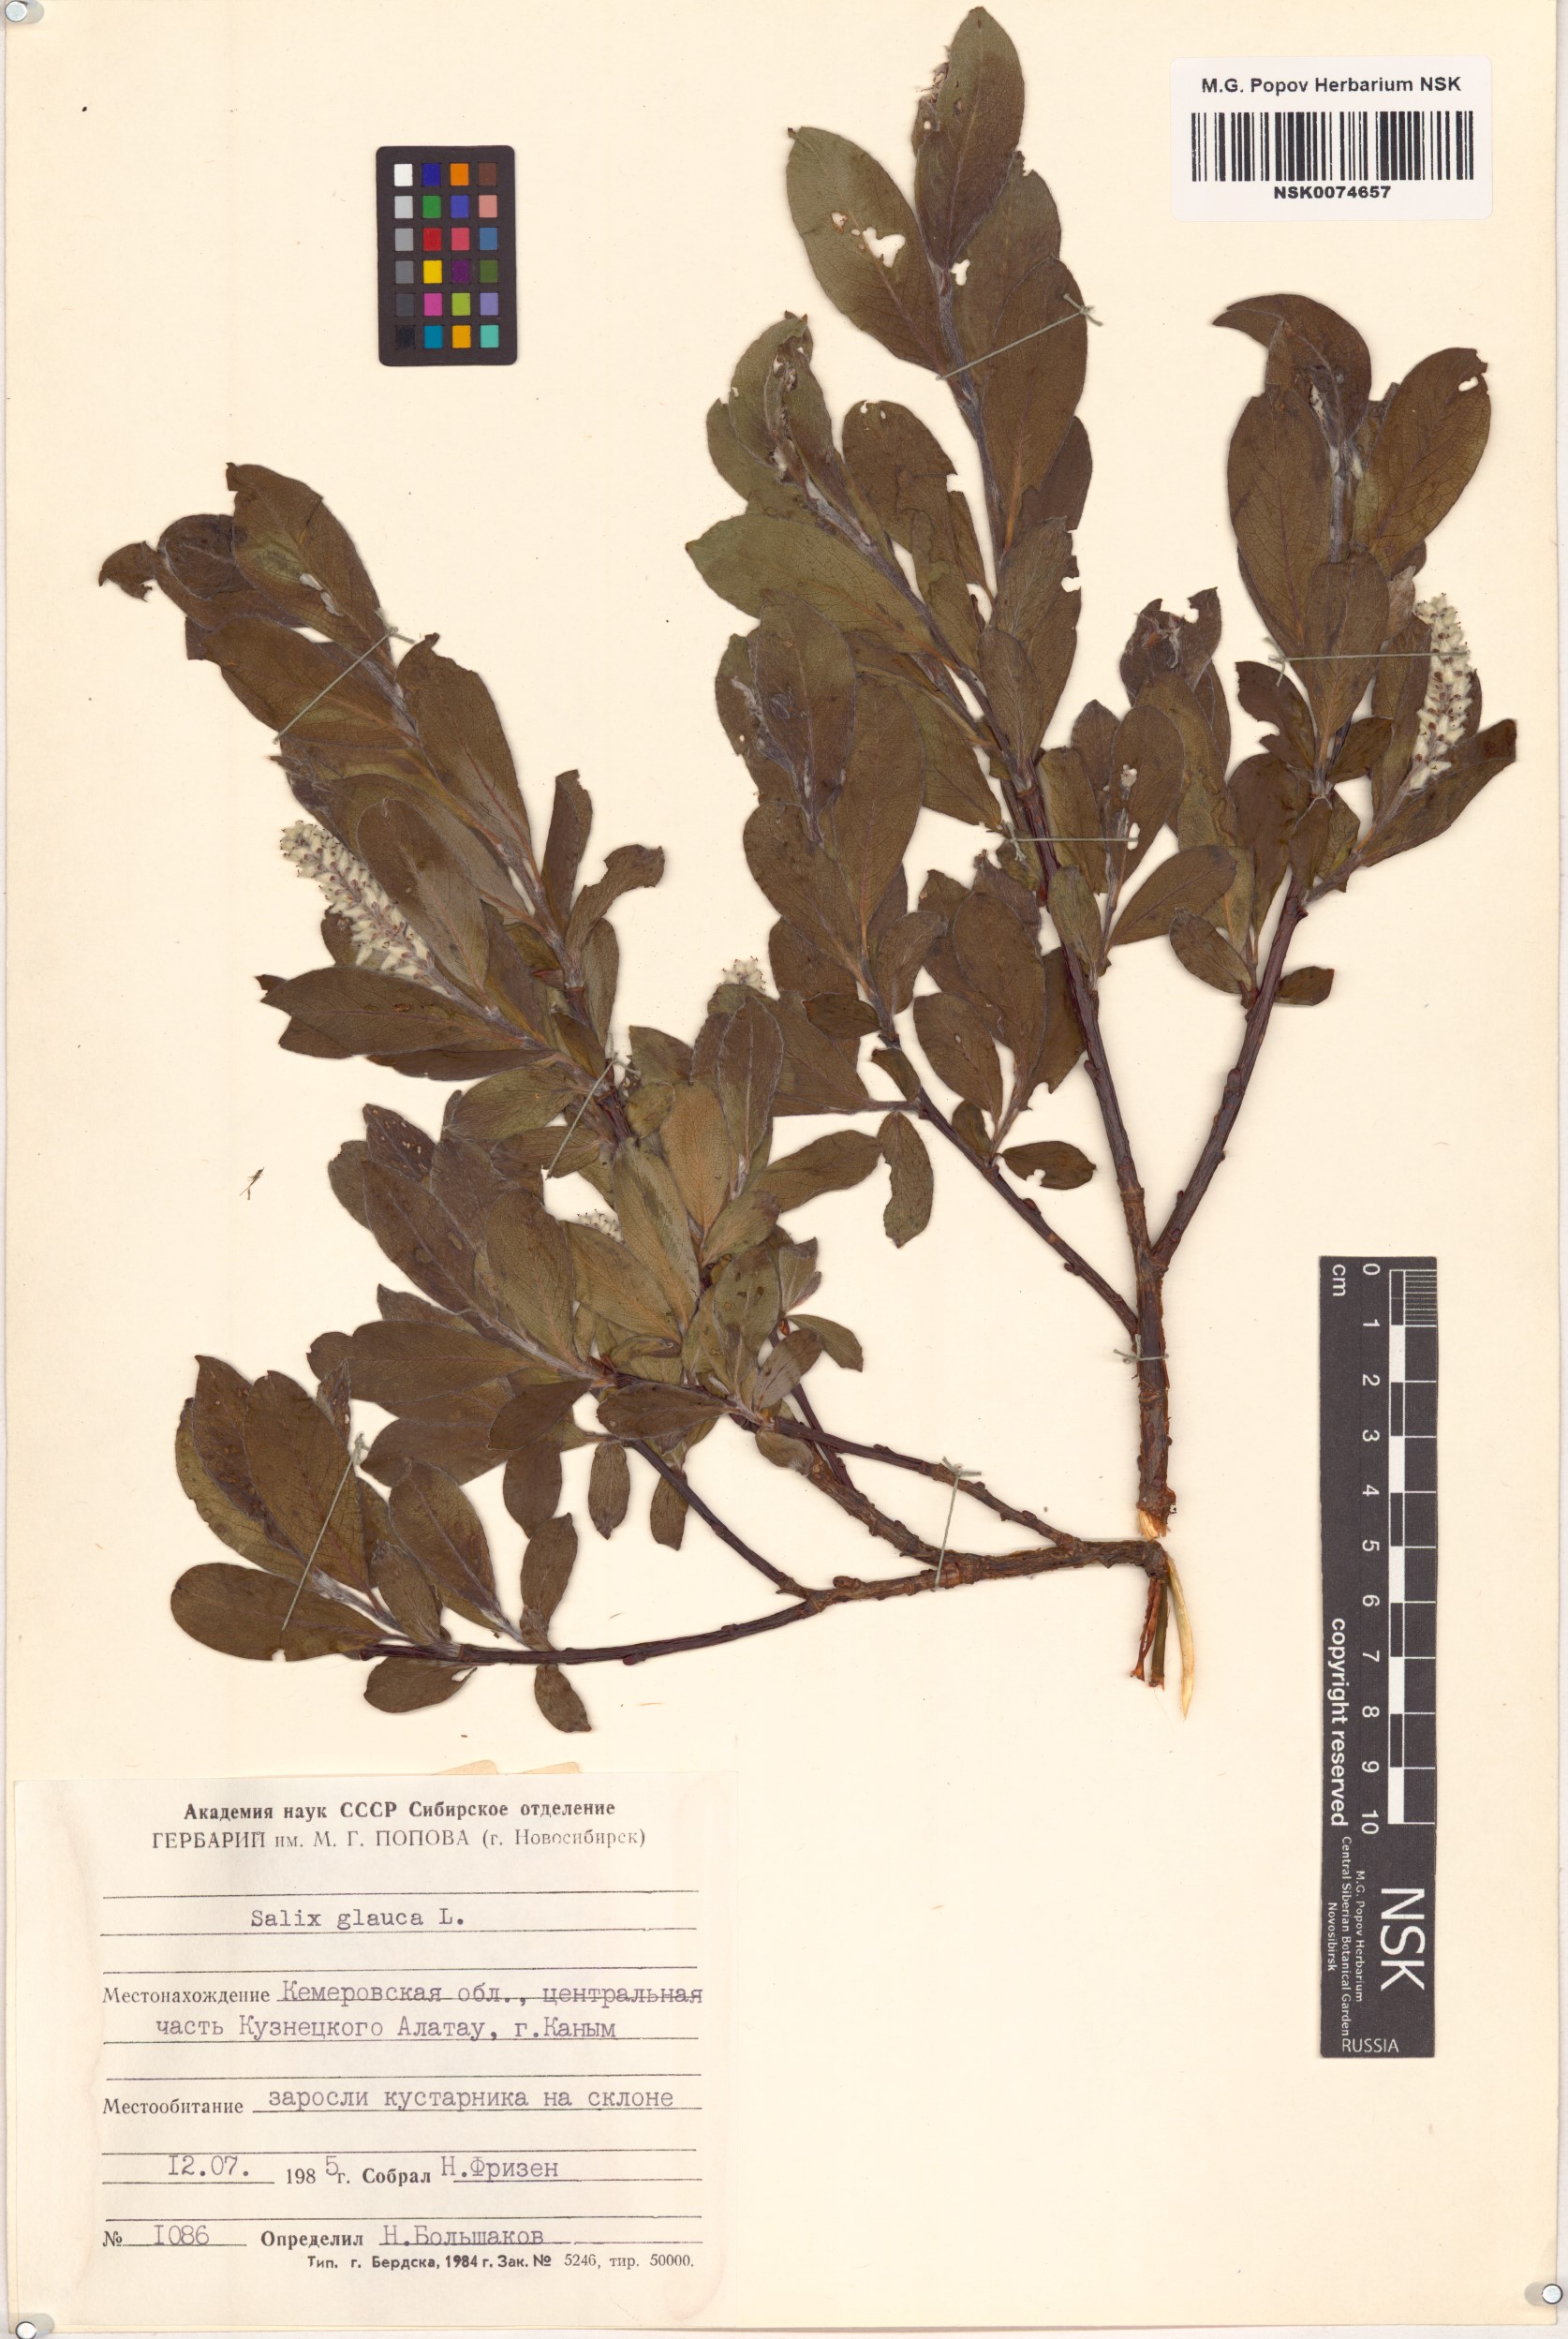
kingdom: Plantae
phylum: Tracheophyta
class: Magnoliopsida
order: Malpighiales
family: Salicaceae
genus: Salix
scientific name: Salix glauca
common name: Glaucous willow
